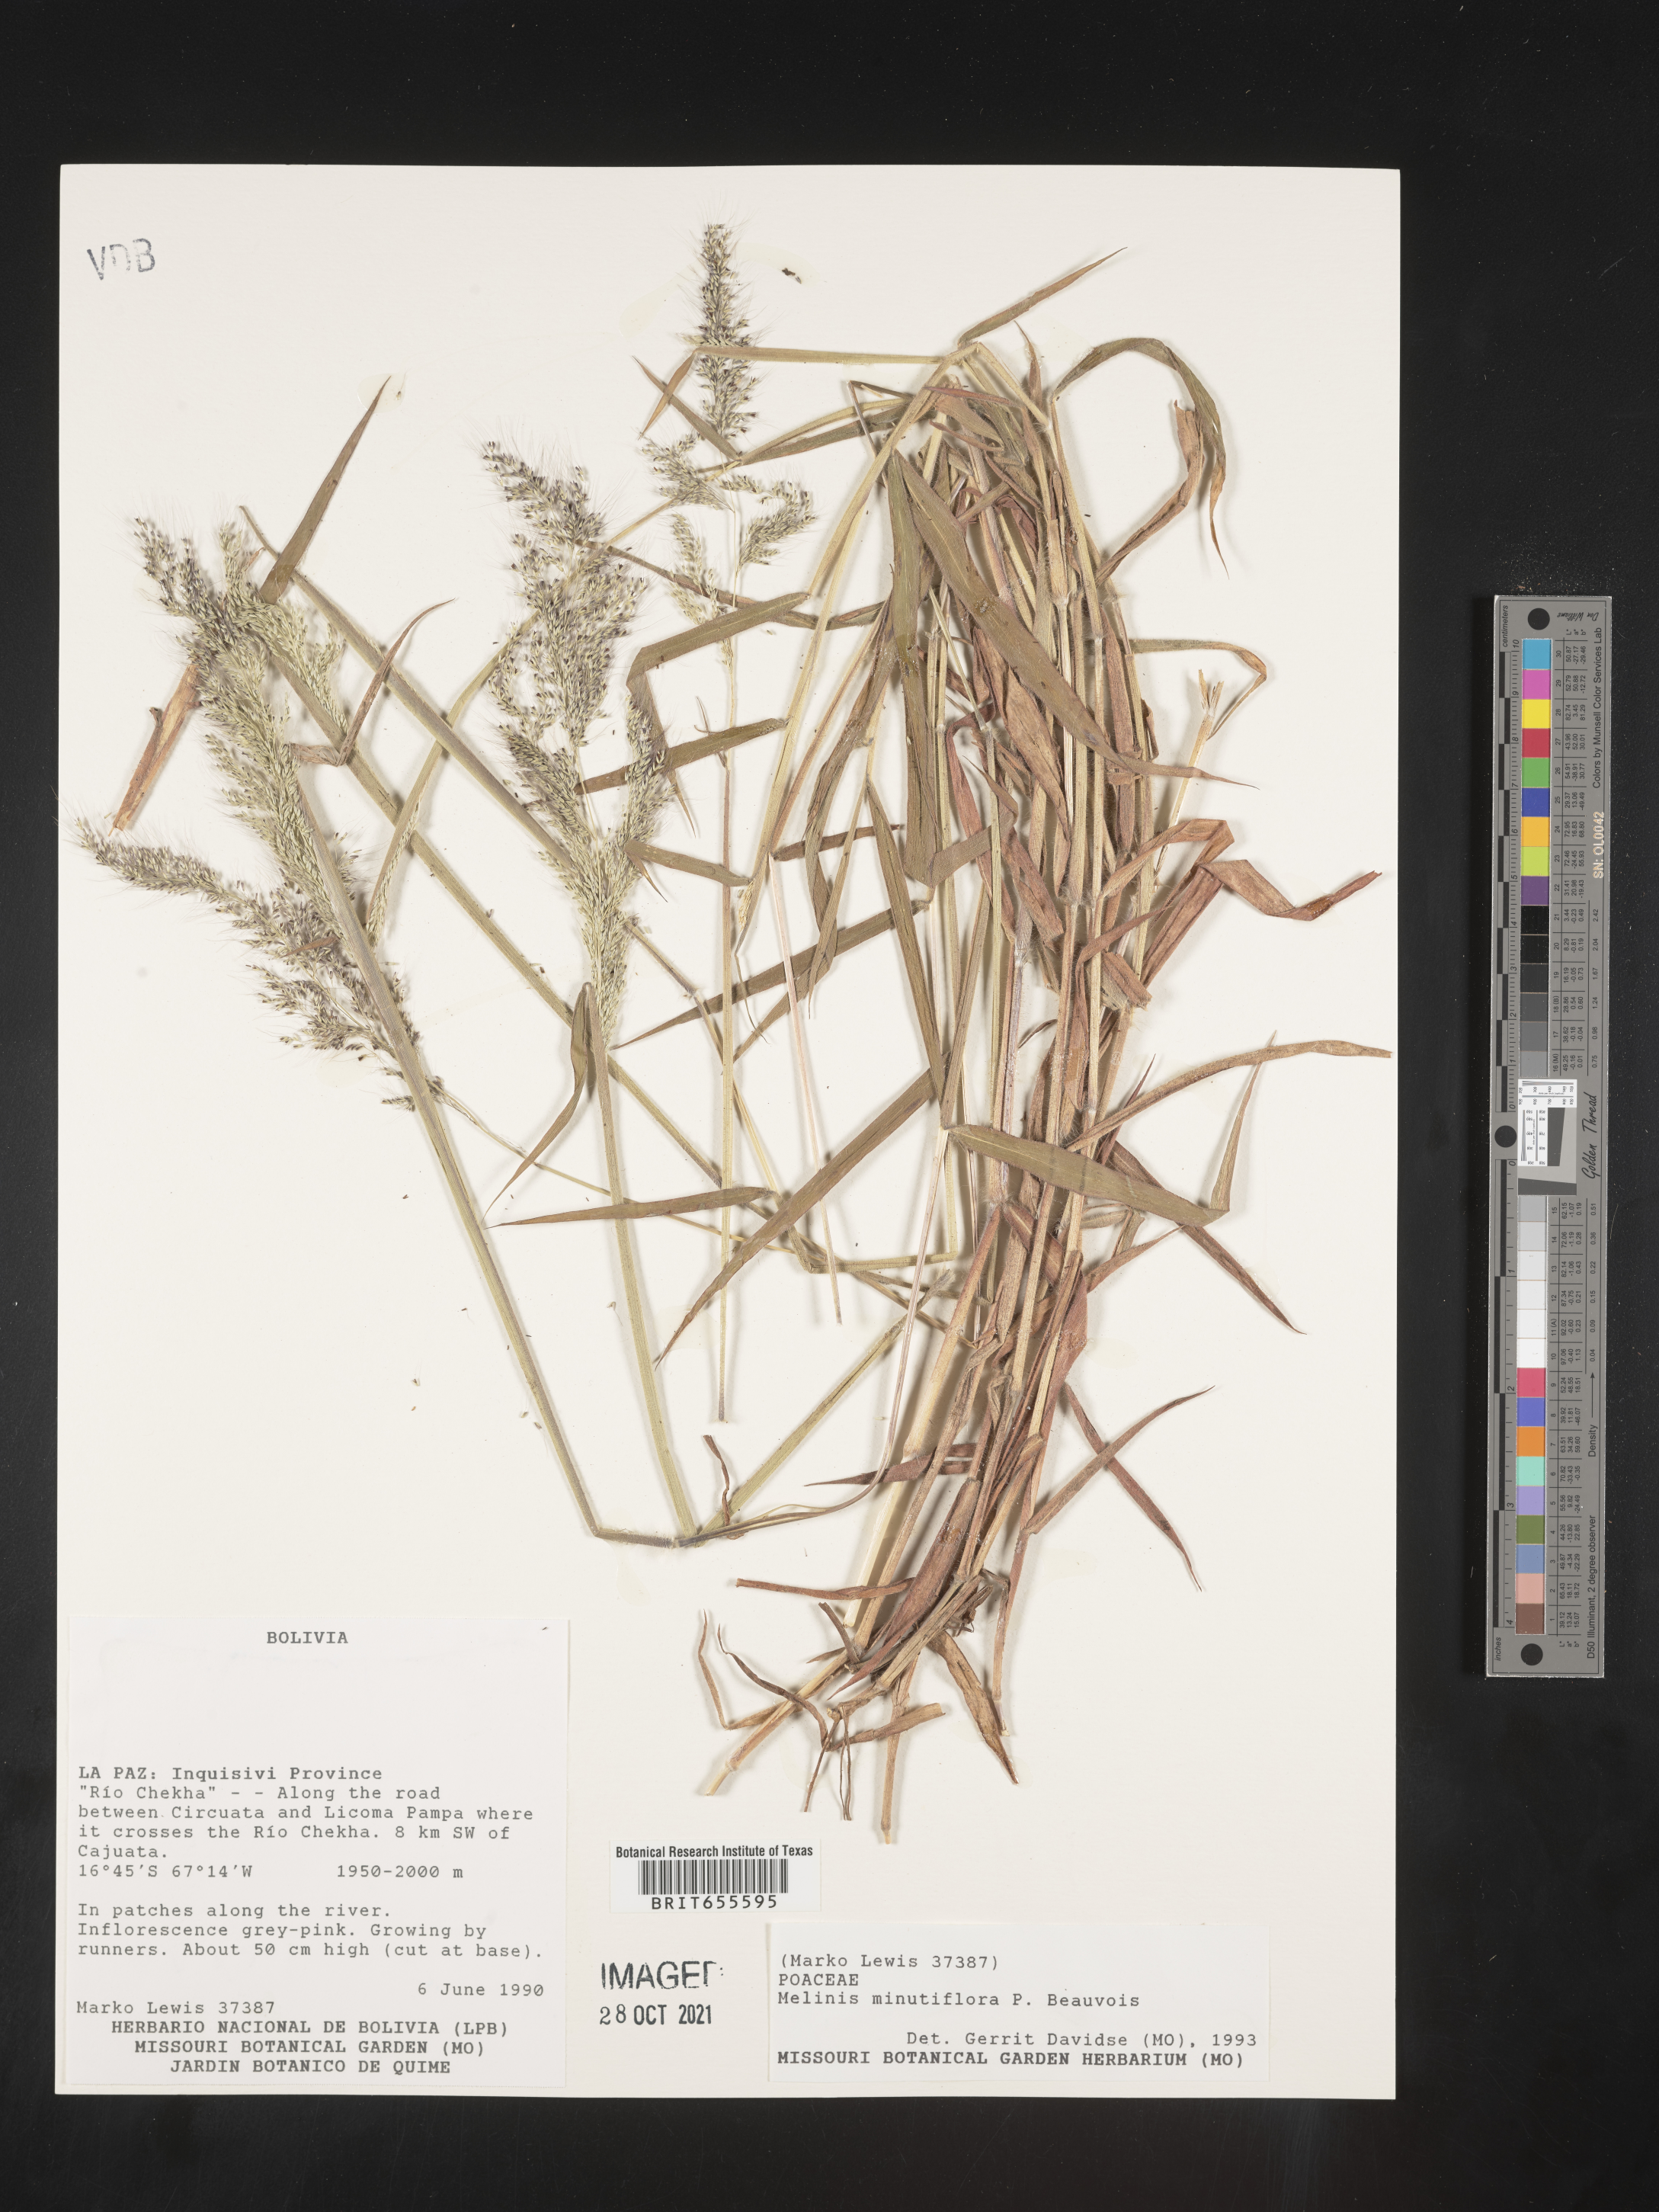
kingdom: Plantae
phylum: Tracheophyta
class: Liliopsida
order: Poales
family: Poaceae
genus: Melinis
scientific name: Melinis
